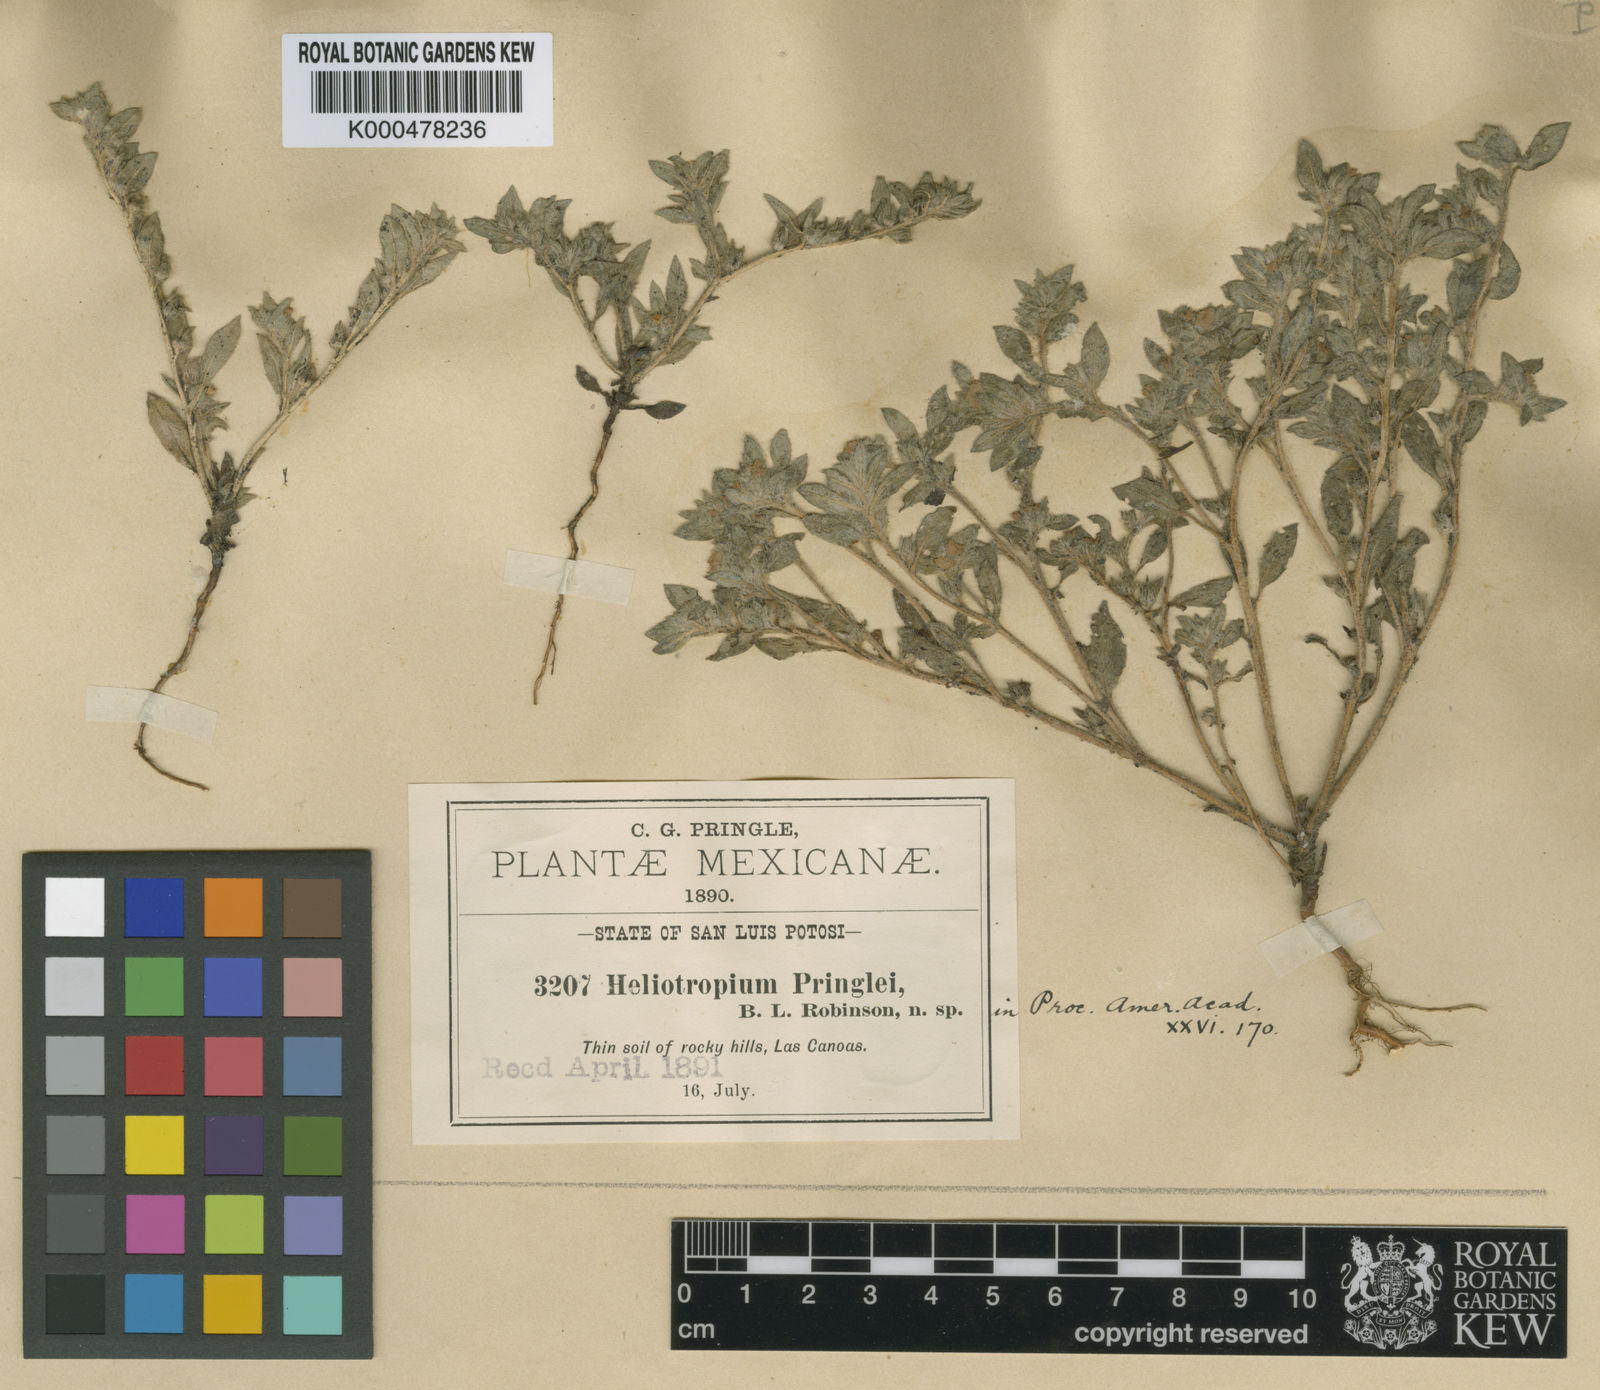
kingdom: Plantae
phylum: Tracheophyta
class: Magnoliopsida
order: Boraginales
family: Heliotropiaceae
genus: Euploca
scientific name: Euploca pringlei
